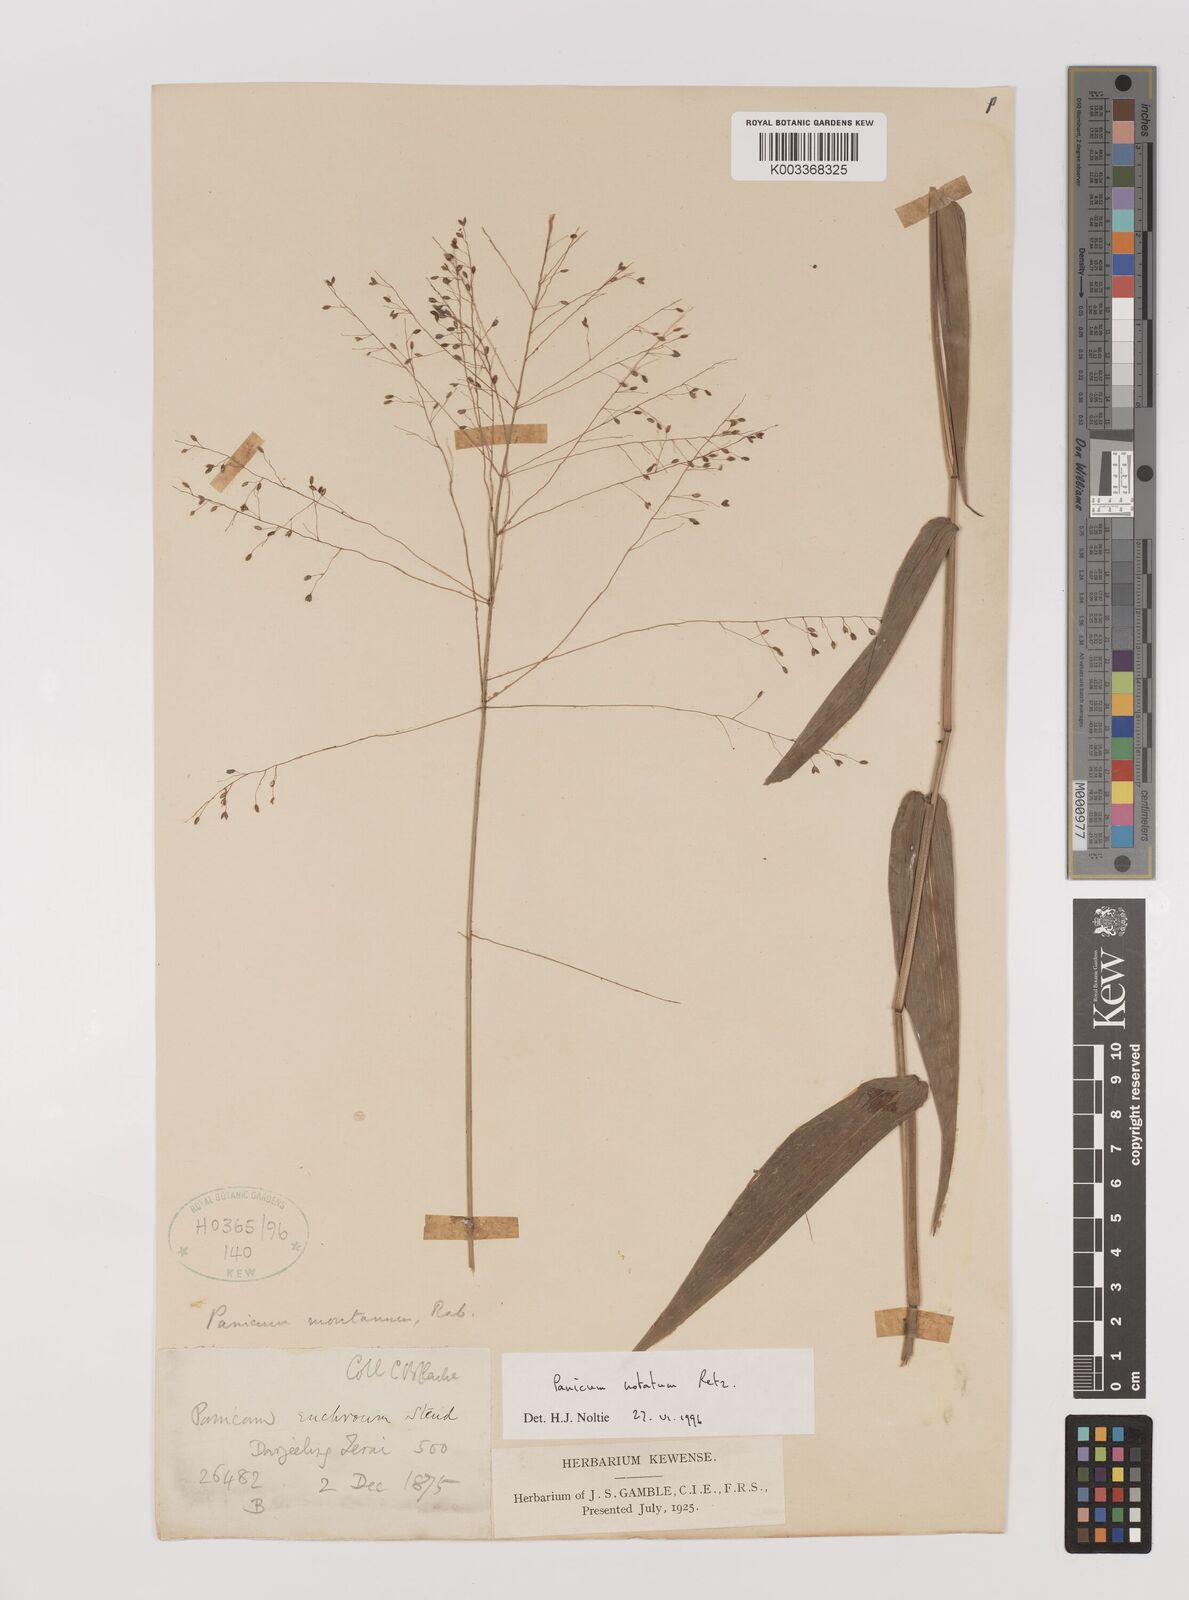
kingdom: Plantae
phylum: Tracheophyta
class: Liliopsida
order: Poales
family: Poaceae
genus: Panicum
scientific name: Panicum notatum
